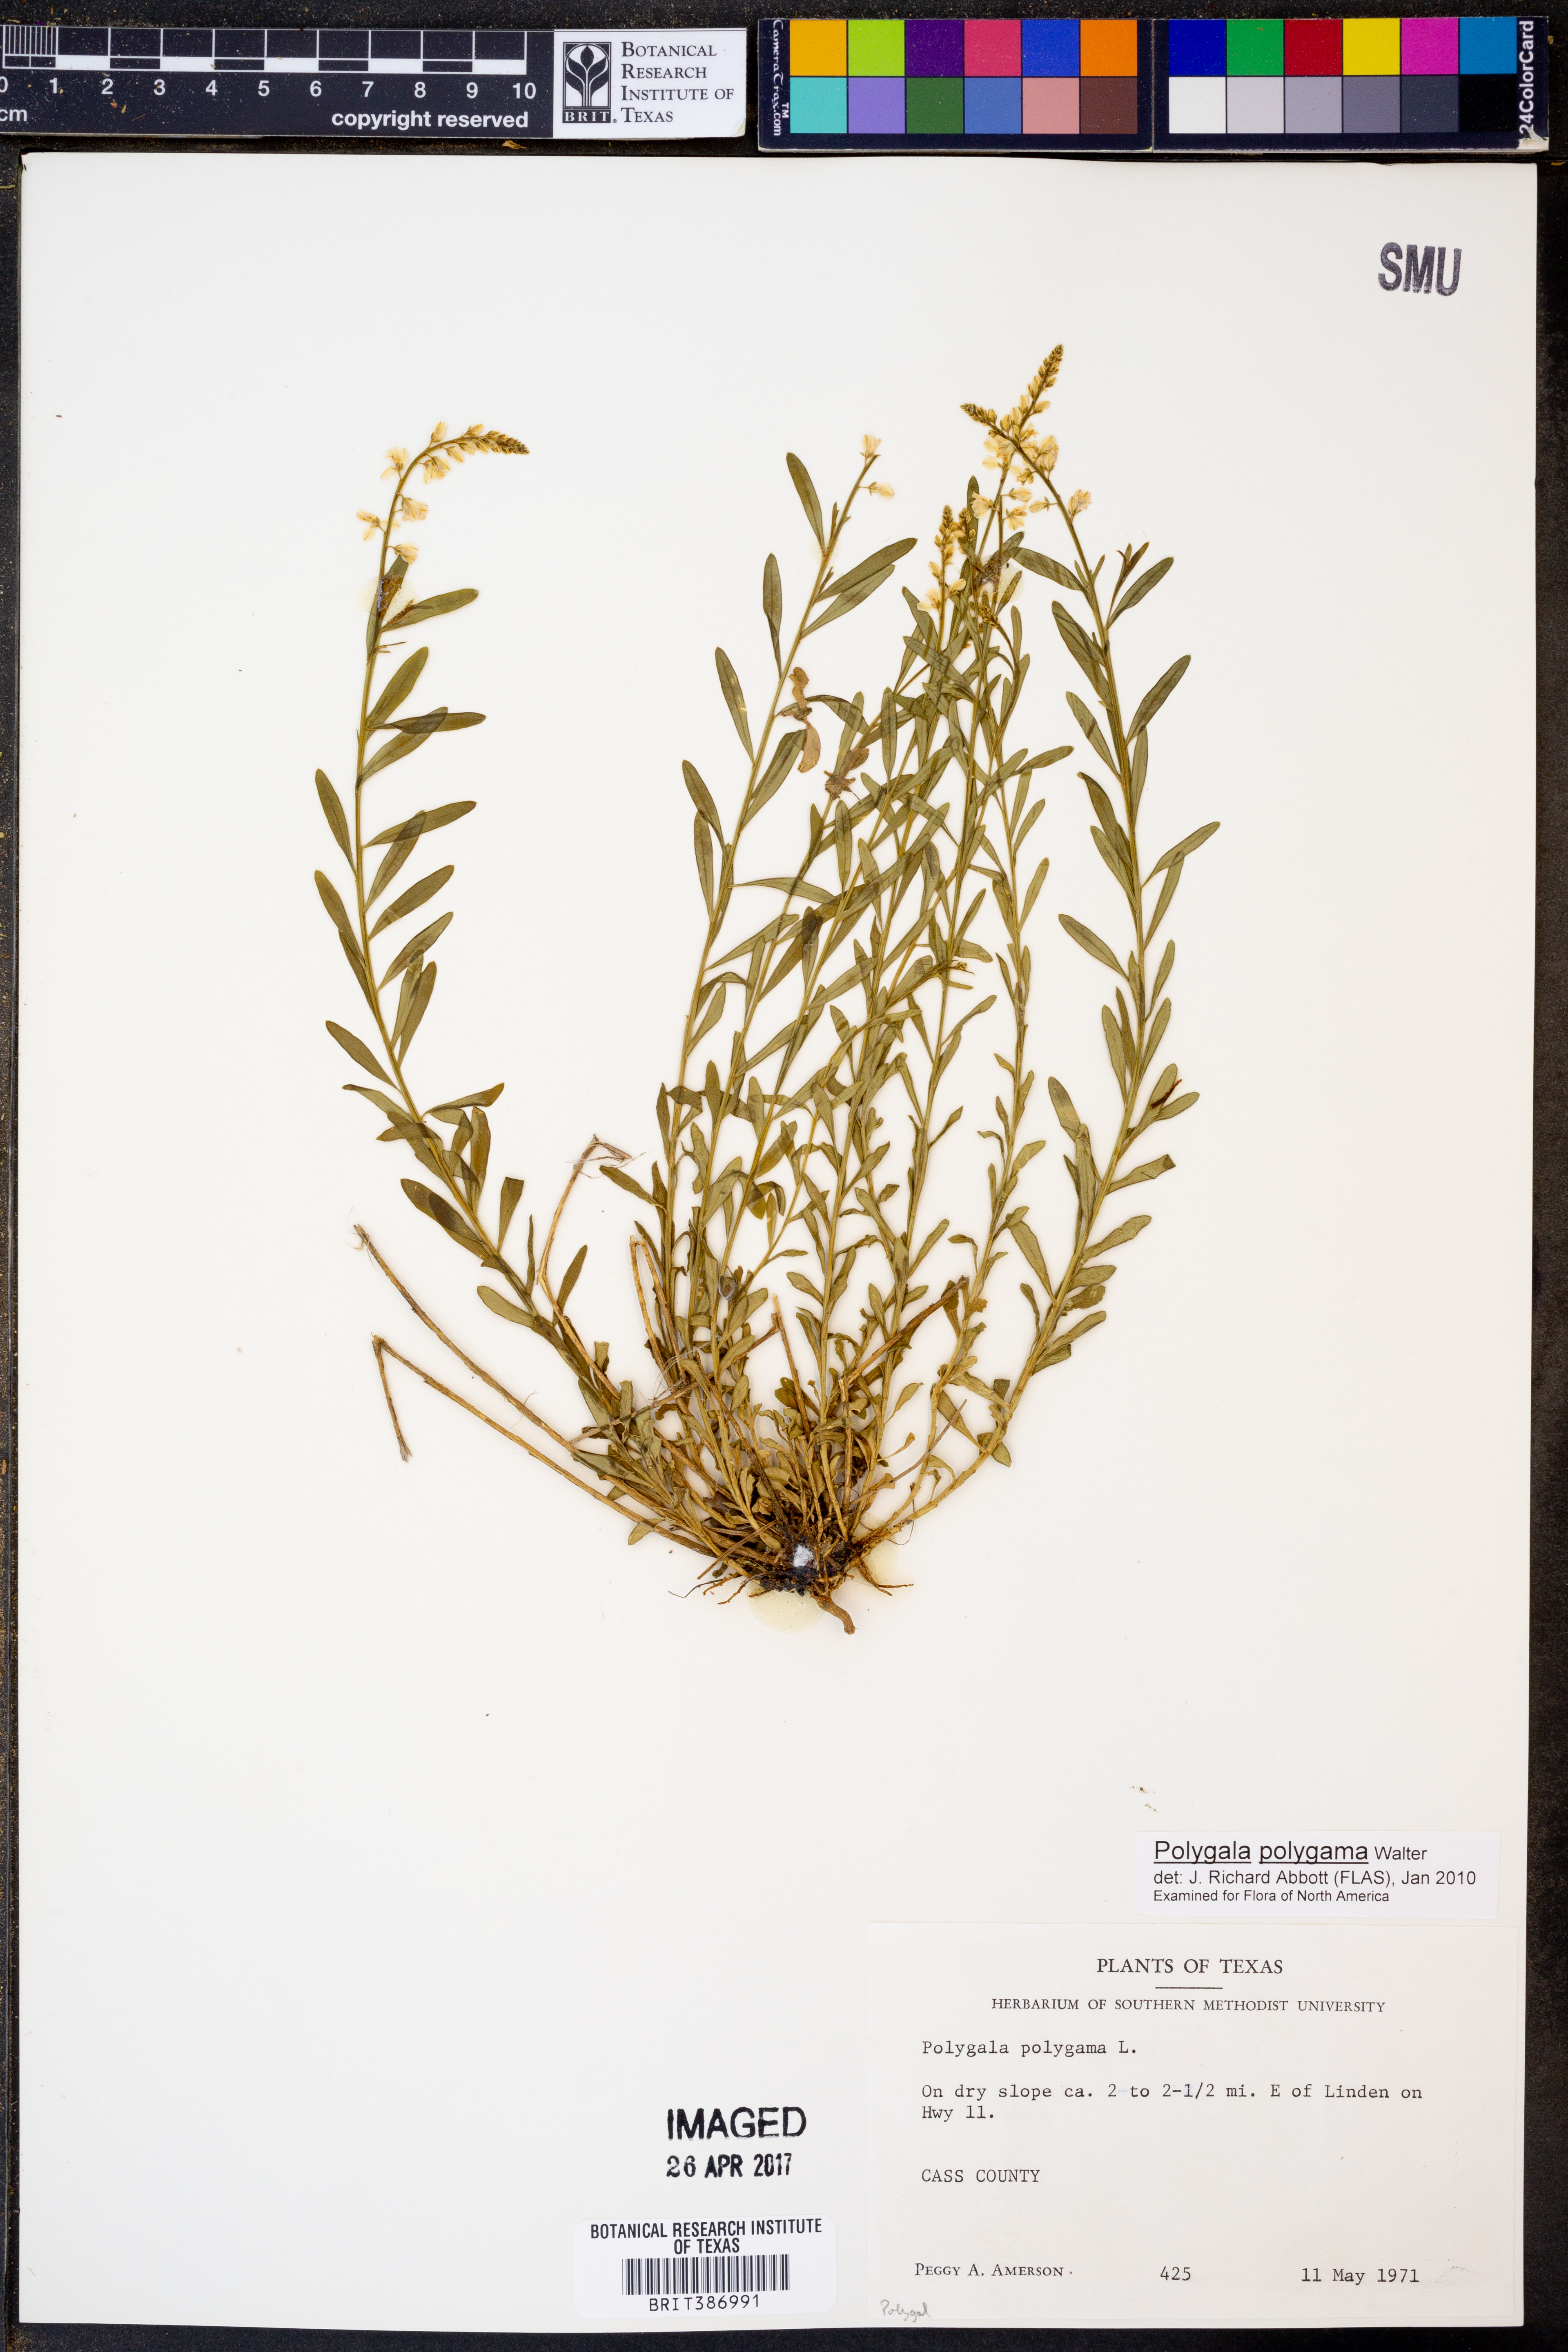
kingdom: Plantae
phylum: Tracheophyta
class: Magnoliopsida
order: Fabales
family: Polygalaceae
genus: Polygala
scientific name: Polygala polygama
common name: Bitter milkwort
